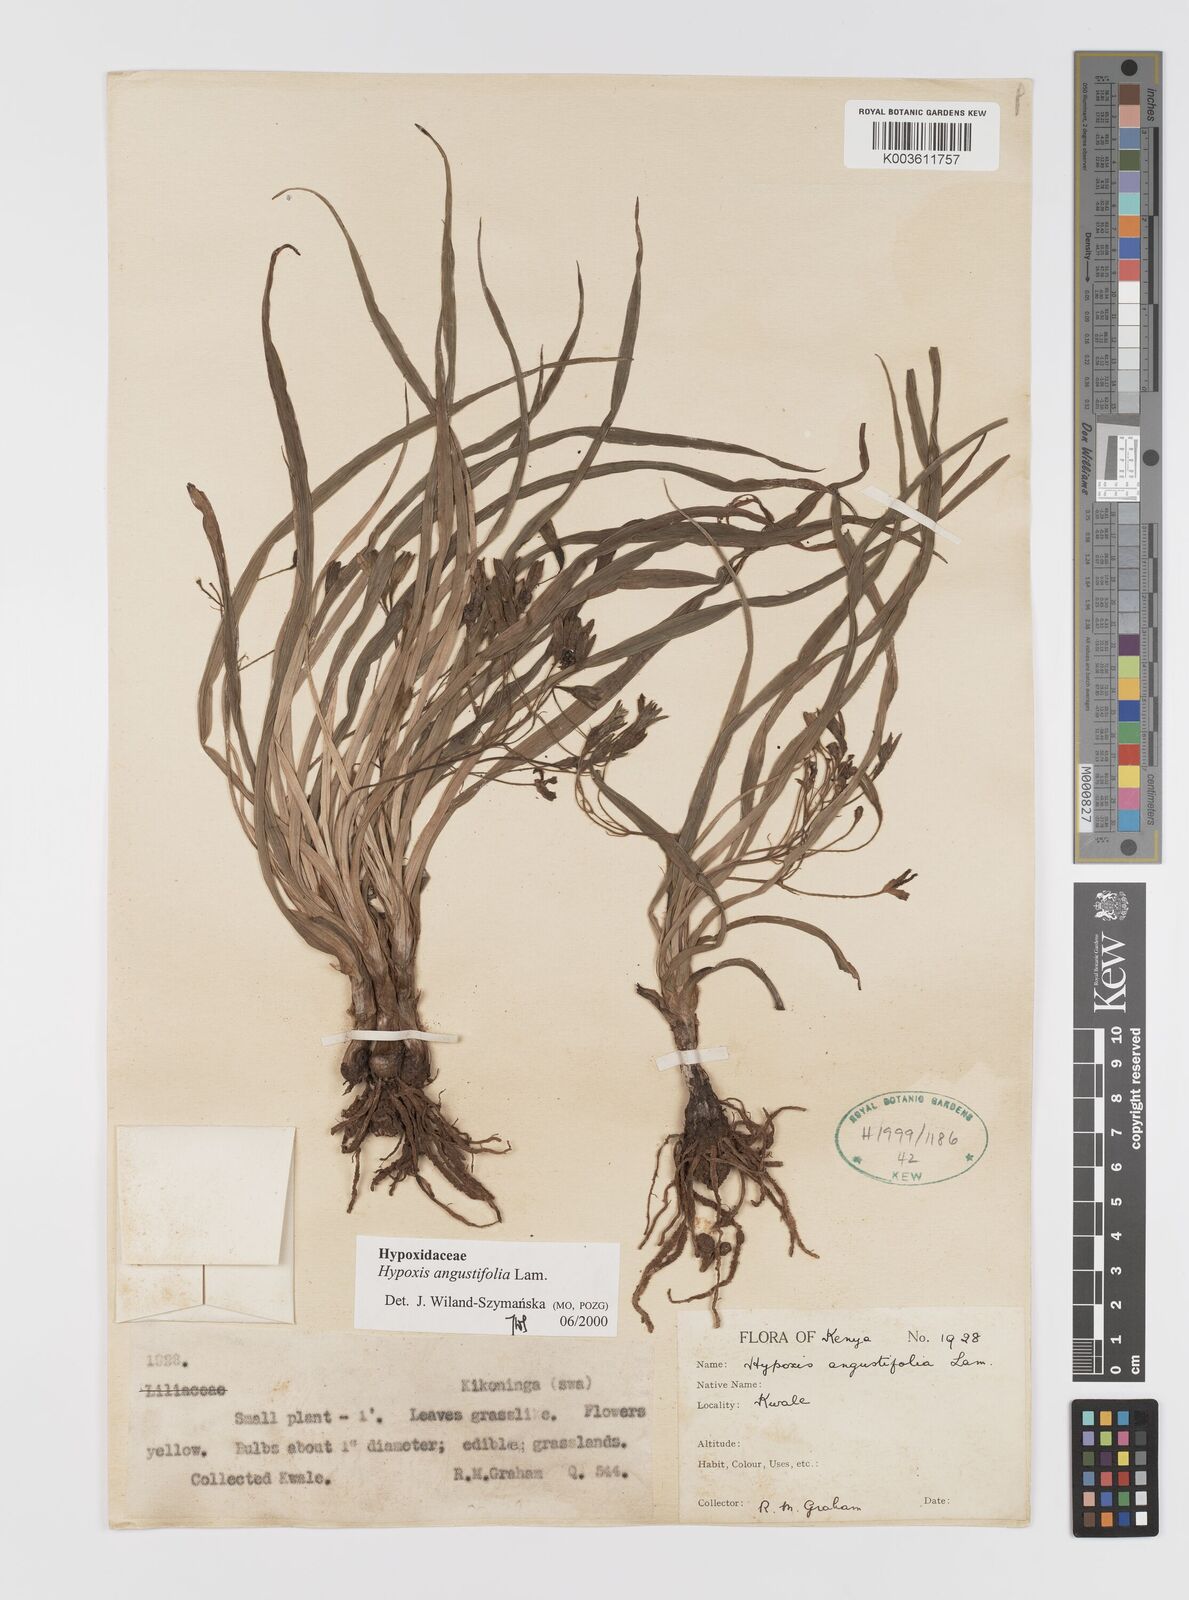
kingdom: Plantae
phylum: Tracheophyta
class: Liliopsida
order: Asparagales
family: Hypoxidaceae
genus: Hypoxis
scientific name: Hypoxis angustifolia
